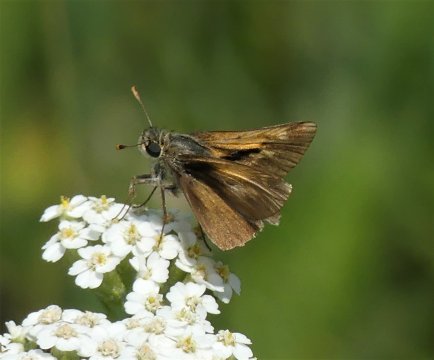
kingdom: Animalia
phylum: Arthropoda
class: Insecta
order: Lepidoptera
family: Hesperiidae
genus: Polites
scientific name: Polites
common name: Crossline Skipper
